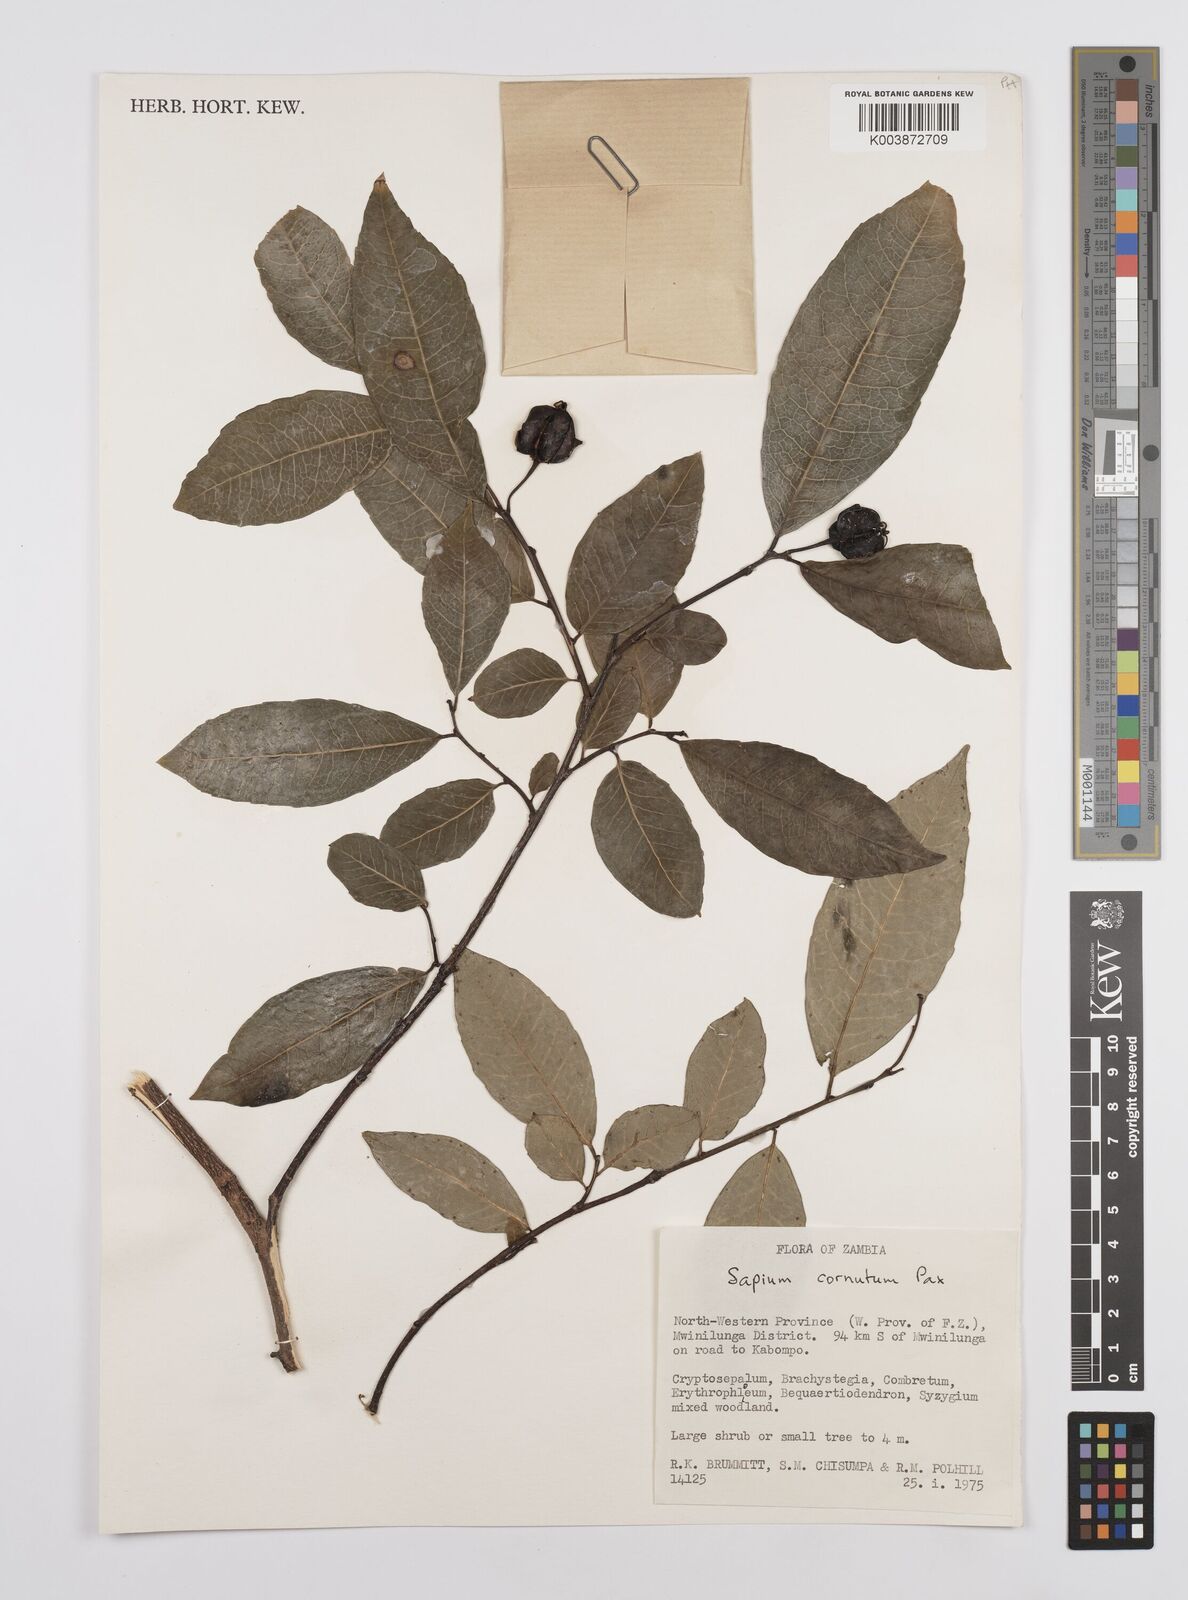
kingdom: Plantae
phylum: Tracheophyta
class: Magnoliopsida
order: Malpighiales
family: Euphorbiaceae
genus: Sclerocroton
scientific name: Sclerocroton cornutus
